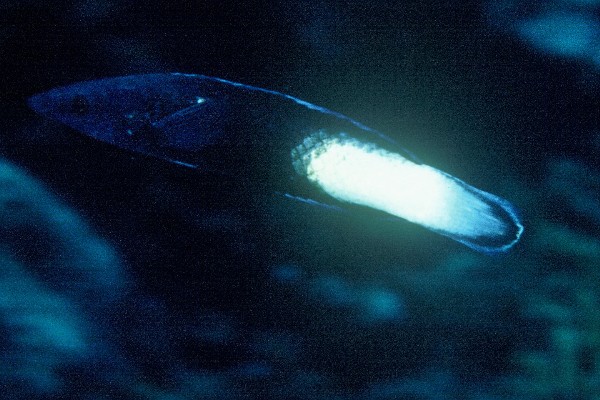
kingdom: Animalia
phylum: Chordata
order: Perciformes
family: Labridae
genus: Labroides
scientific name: Labroides bicolor
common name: Bicolor cleaner wrasse
